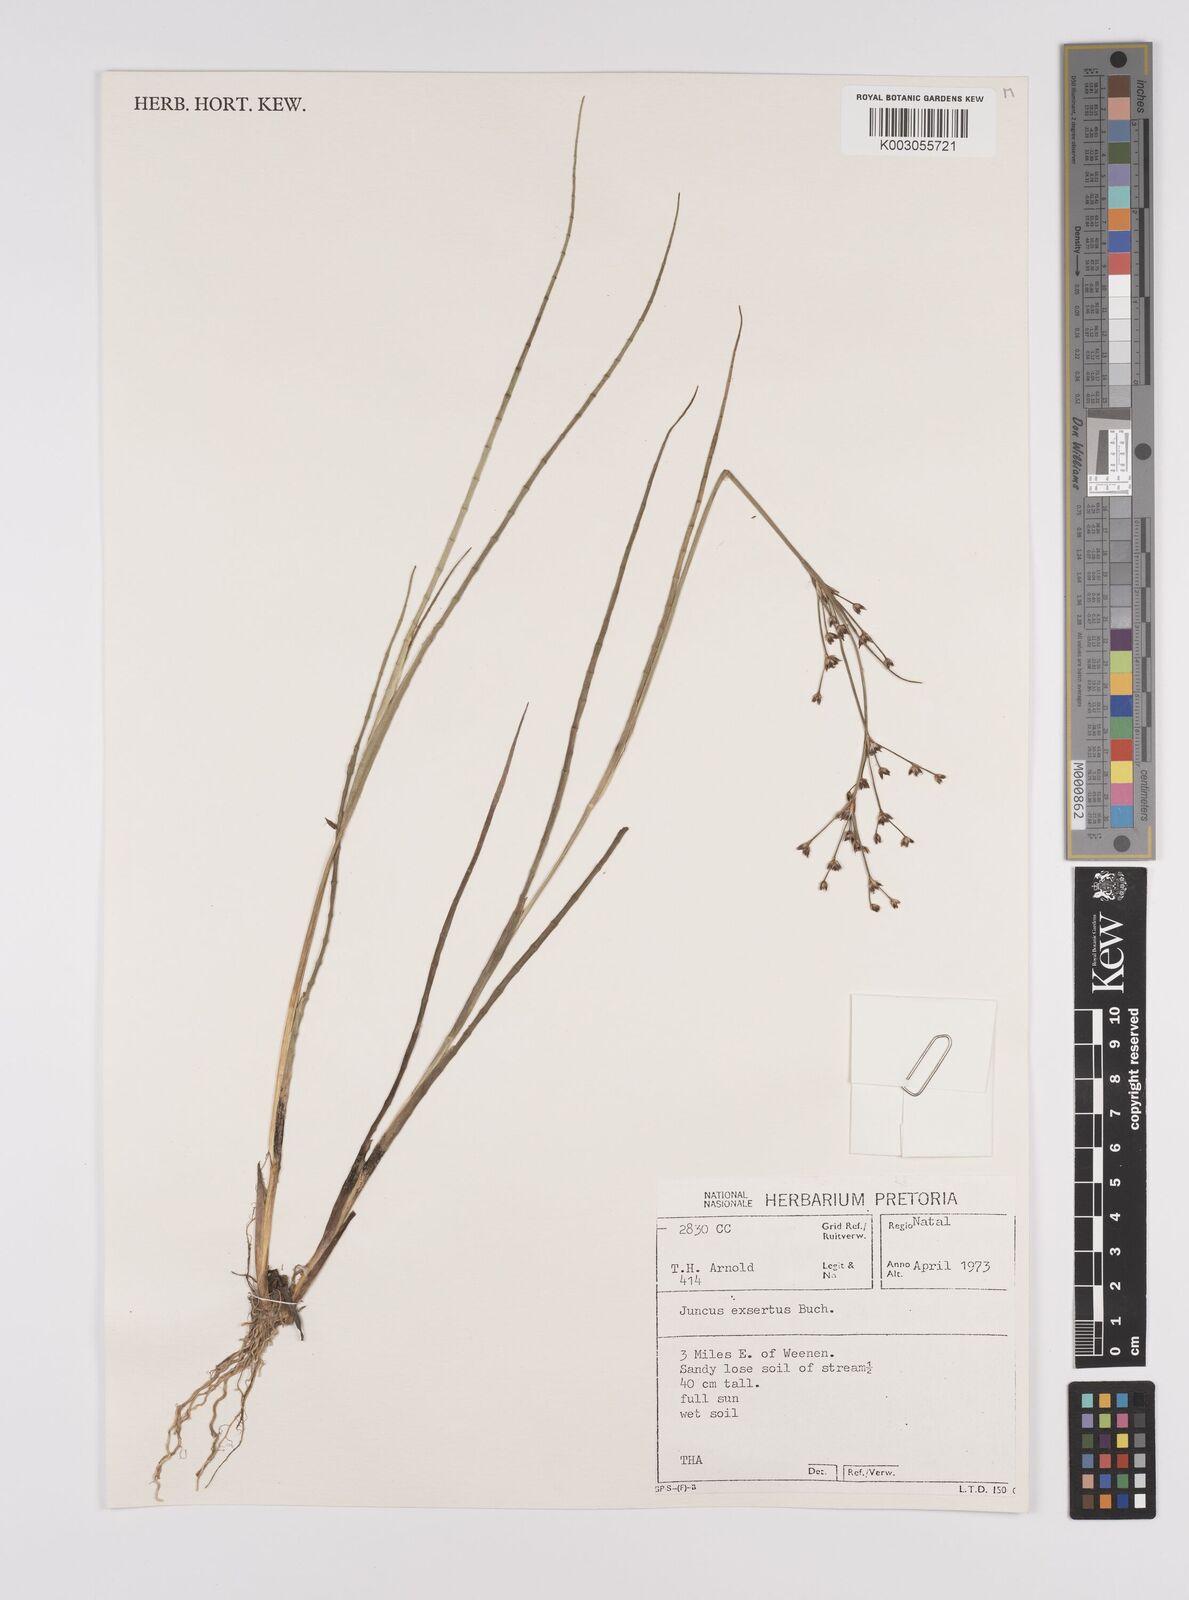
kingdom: Plantae
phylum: Tracheophyta
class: Liliopsida
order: Poales
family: Juncaceae
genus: Juncus
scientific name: Juncus exsertus
